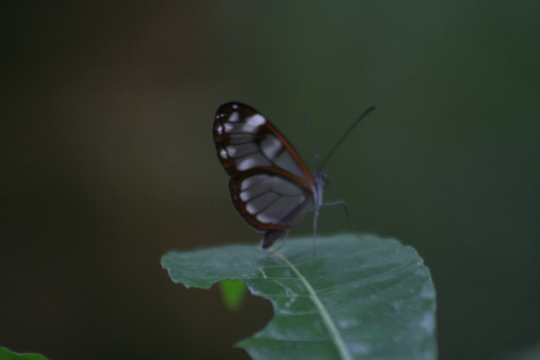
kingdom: Animalia
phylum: Arthropoda
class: Insecta
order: Lepidoptera
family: Nymphalidae
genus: Greta
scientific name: Greta annette
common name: White-spotted Clearwing
